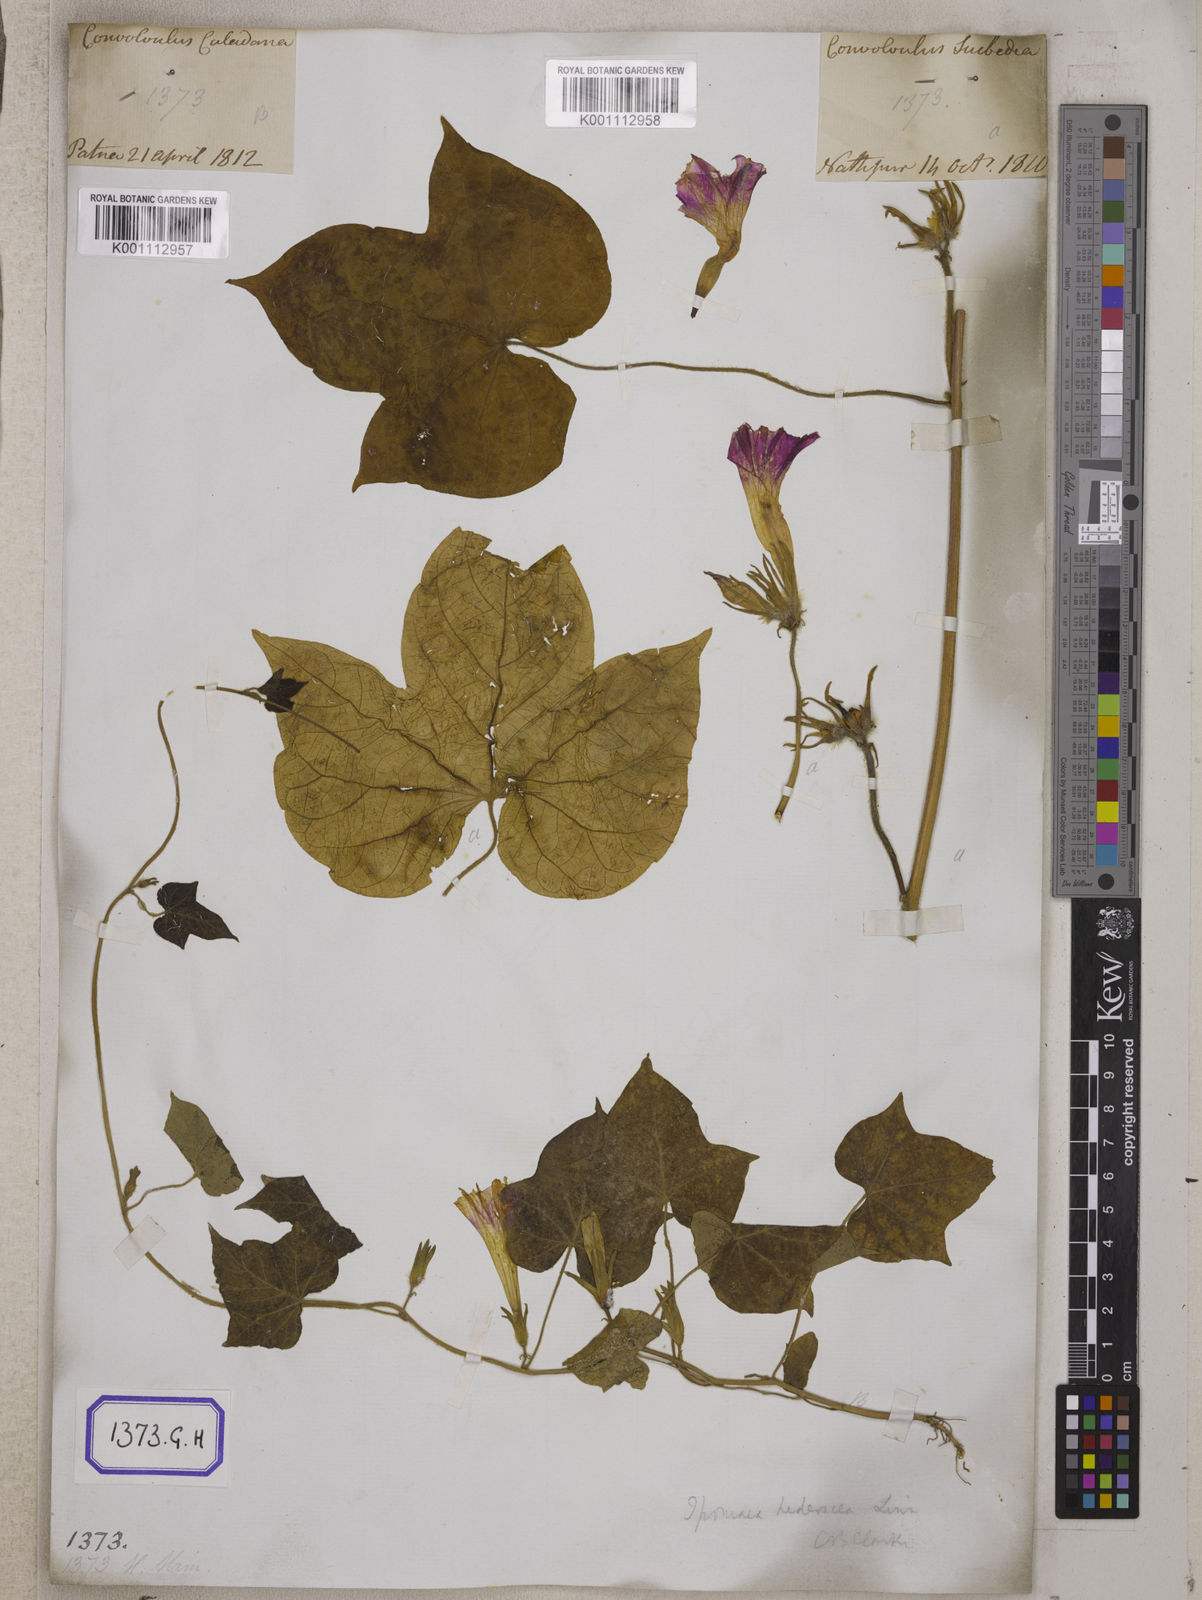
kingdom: Plantae
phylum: Tracheophyta
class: Magnoliopsida
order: Solanales
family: Convolvulaceae
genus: Ipomoea
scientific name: Ipomoea nil
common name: Japanese morning-glory
